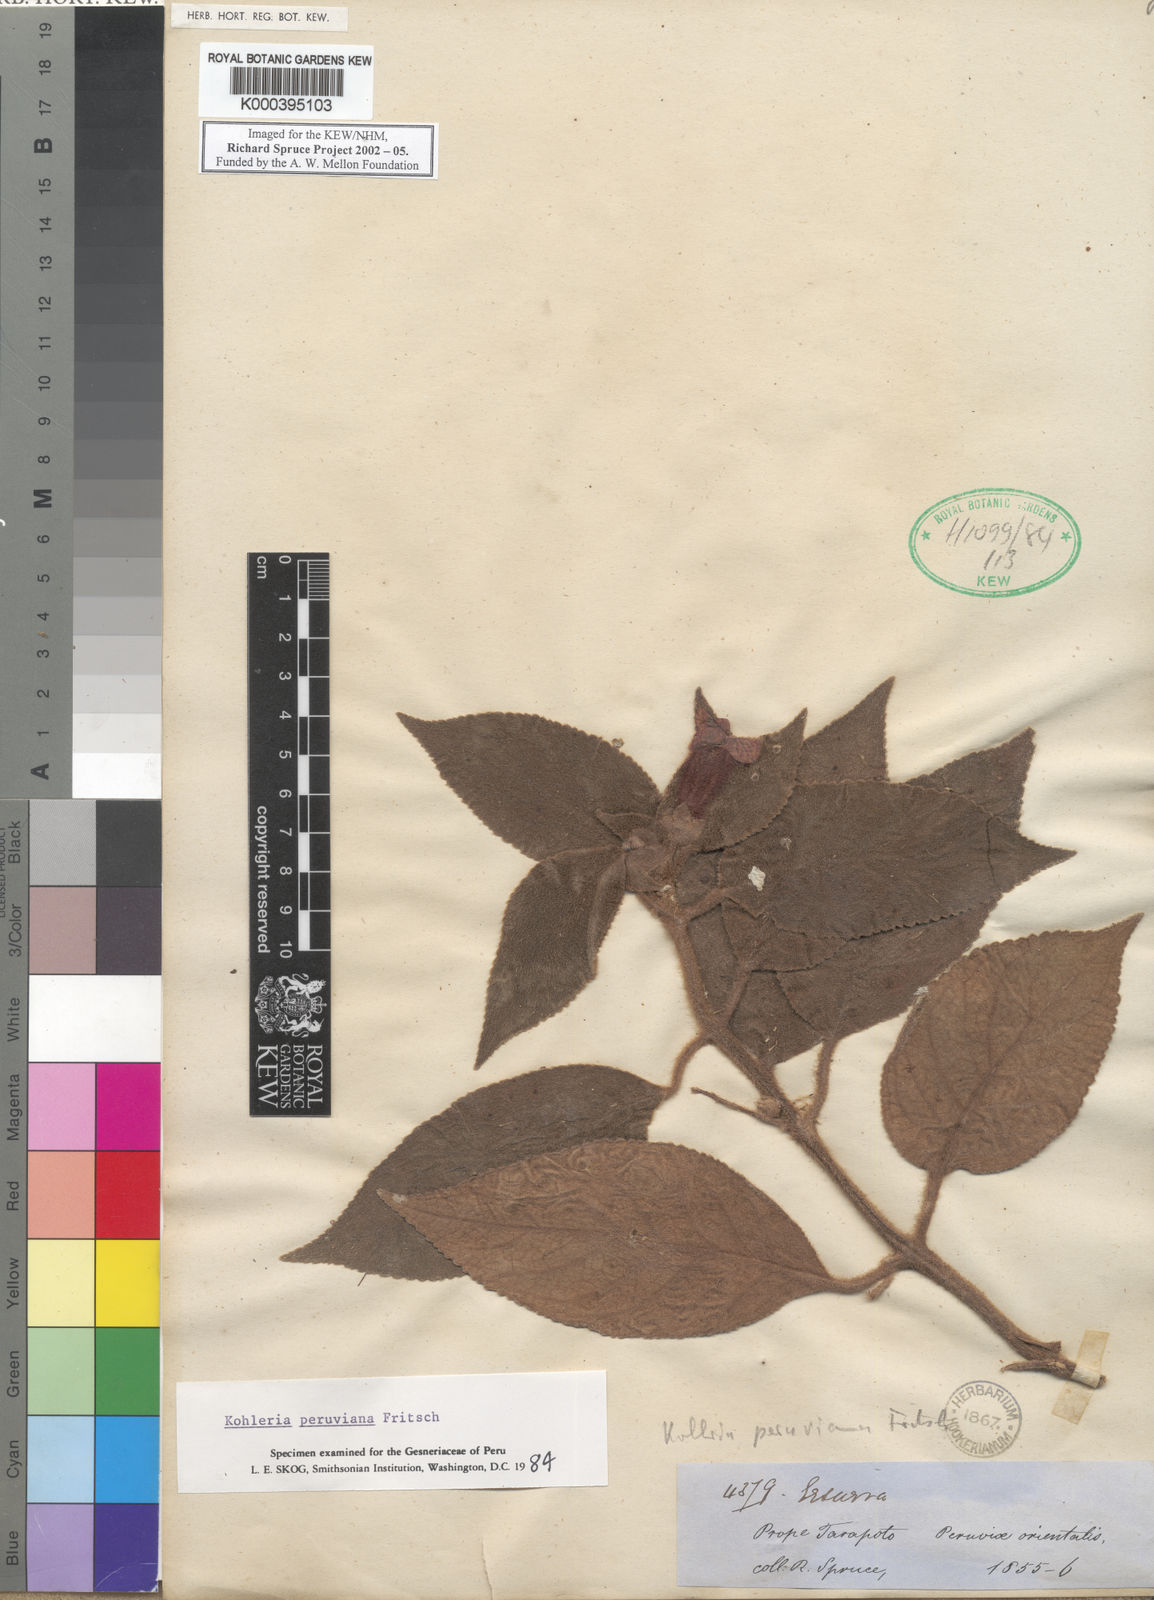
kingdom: Plantae
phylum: Tracheophyta
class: Magnoliopsida
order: Lamiales
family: Gesneriaceae
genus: Kohleria
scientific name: Kohleria peruviana
